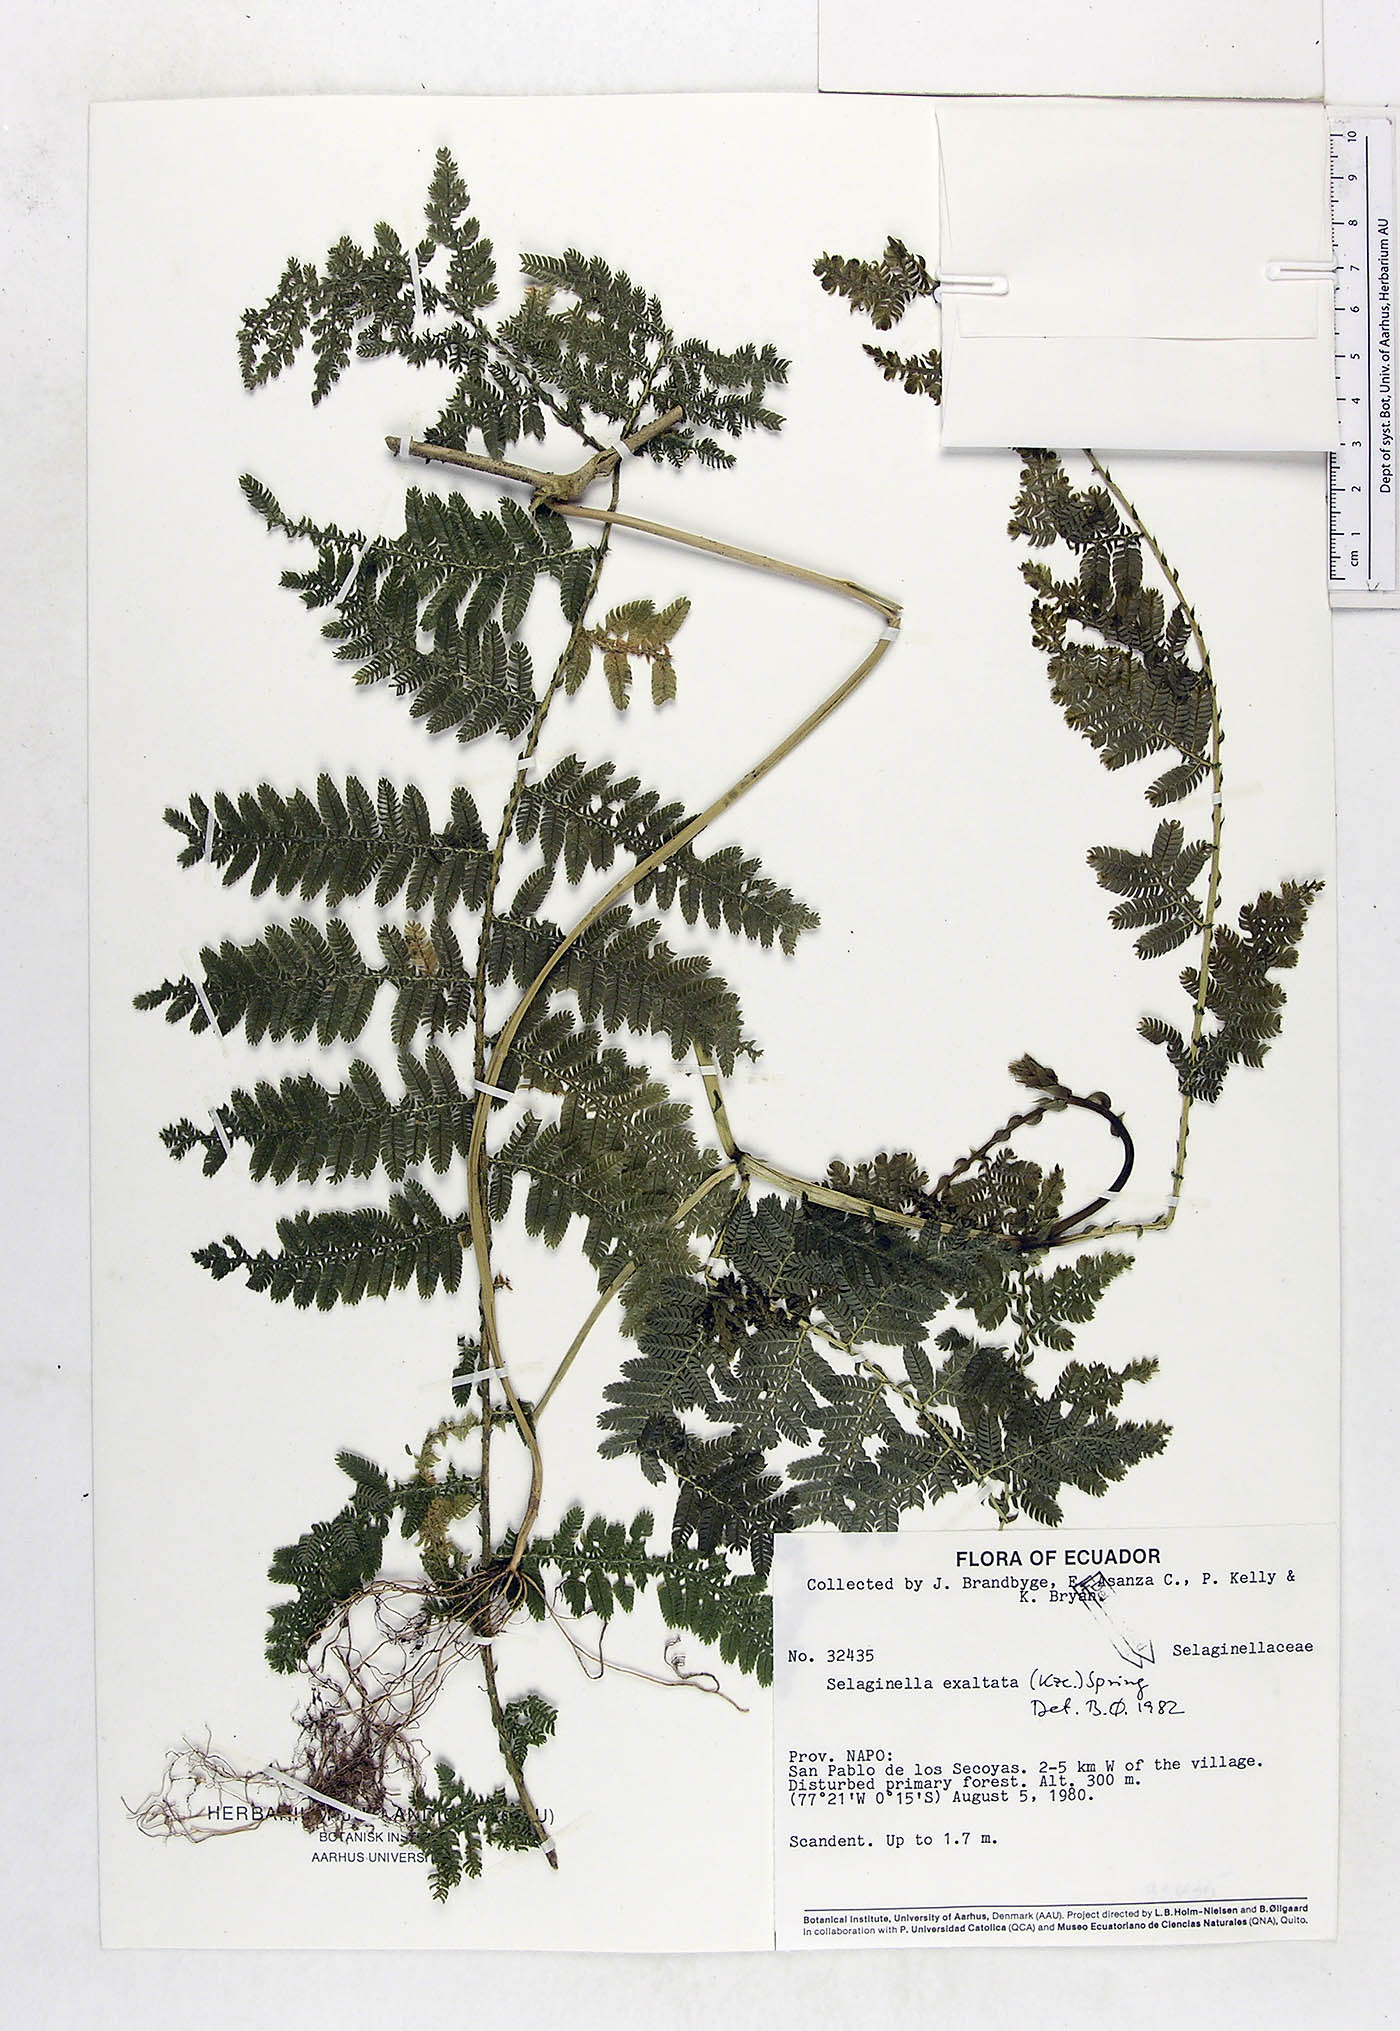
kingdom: Plantae
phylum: Tracheophyta
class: Lycopodiopsida
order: Selaginellales
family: Selaginellaceae
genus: Selaginella
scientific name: Selaginella exaltata
